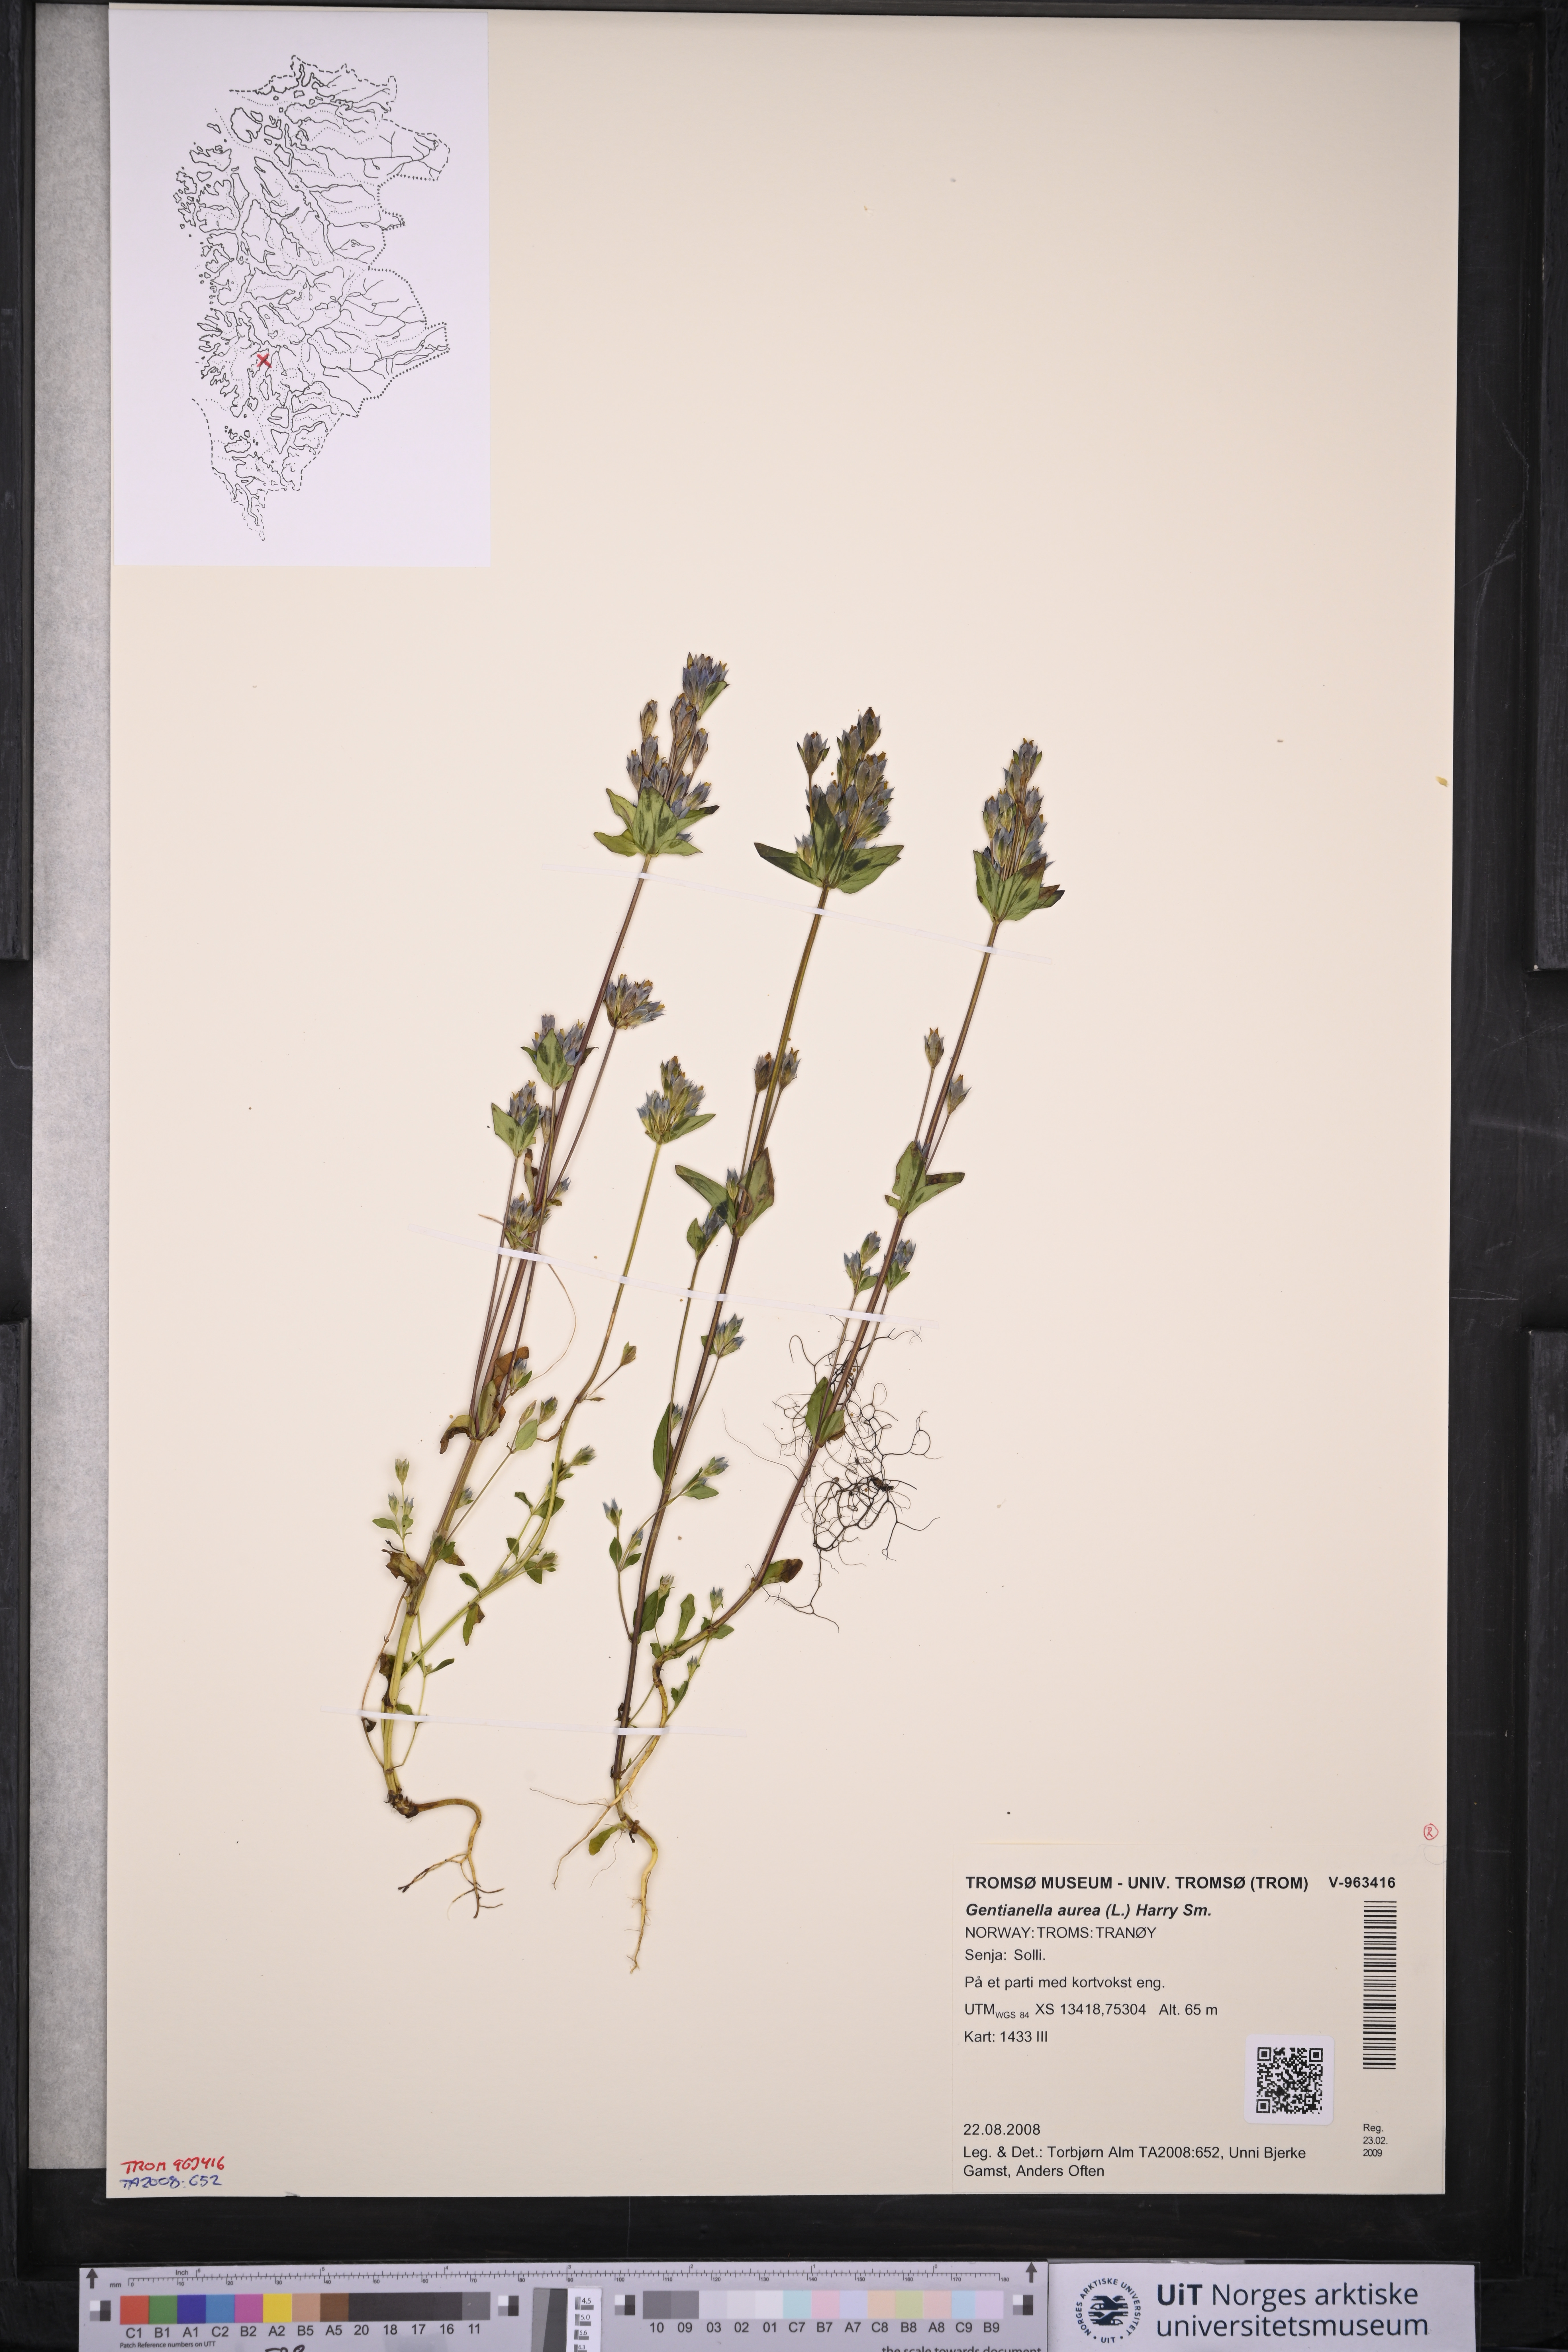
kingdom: Plantae
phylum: Tracheophyta
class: Magnoliopsida
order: Gentianales
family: Gentianaceae
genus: Gentianella
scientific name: Gentianella aurea
